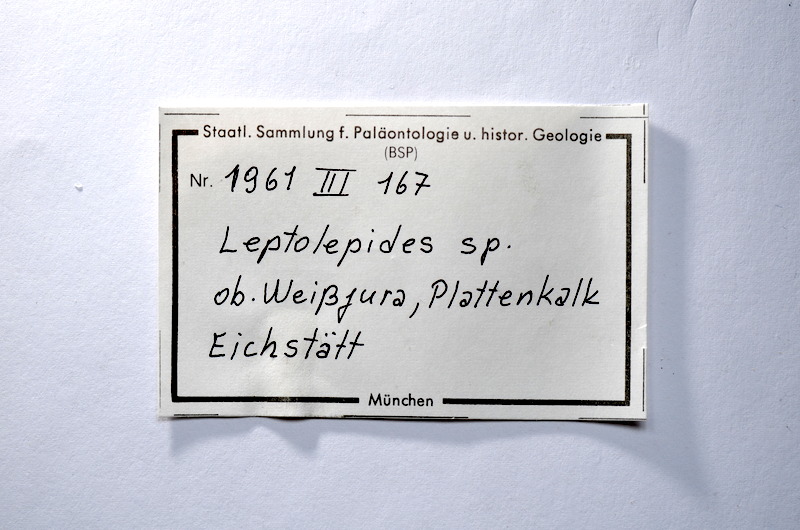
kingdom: Animalia
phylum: Chordata
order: Salmoniformes
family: Orthogonikleithridae
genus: Leptolepides
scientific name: Leptolepides
